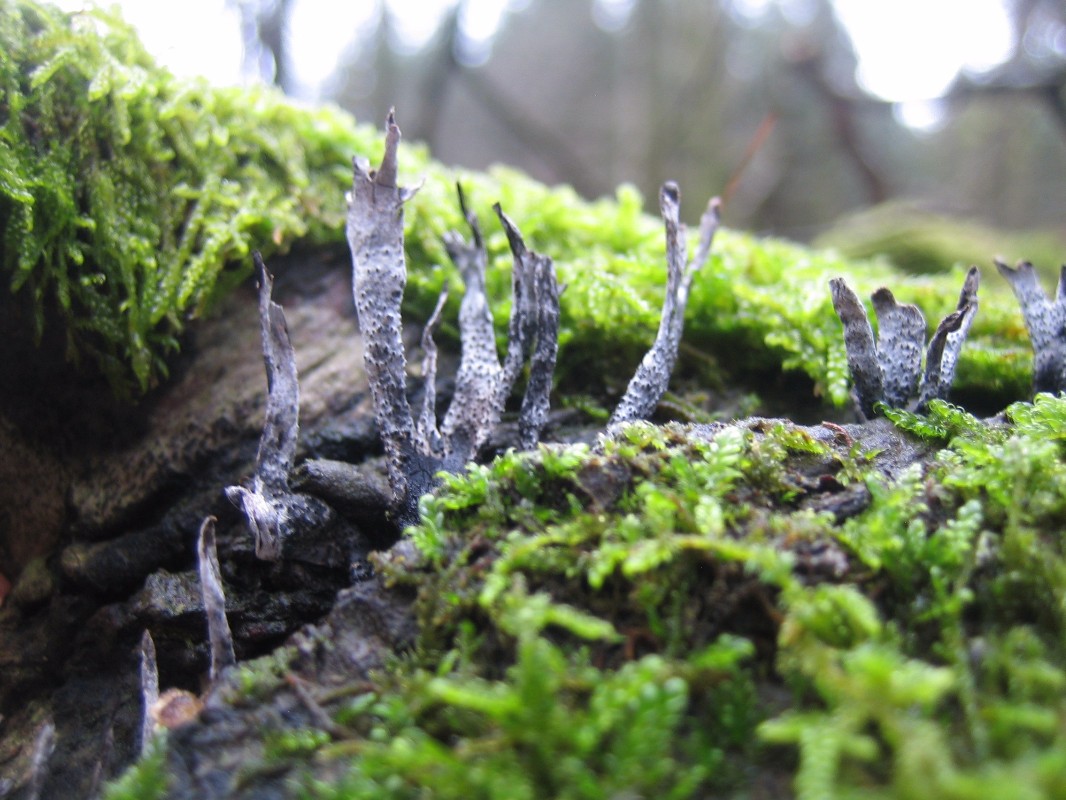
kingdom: Fungi
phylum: Ascomycota
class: Sordariomycetes
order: Xylariales
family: Xylariaceae
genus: Xylaria
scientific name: Xylaria hypoxylon
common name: grenet stødsvamp
